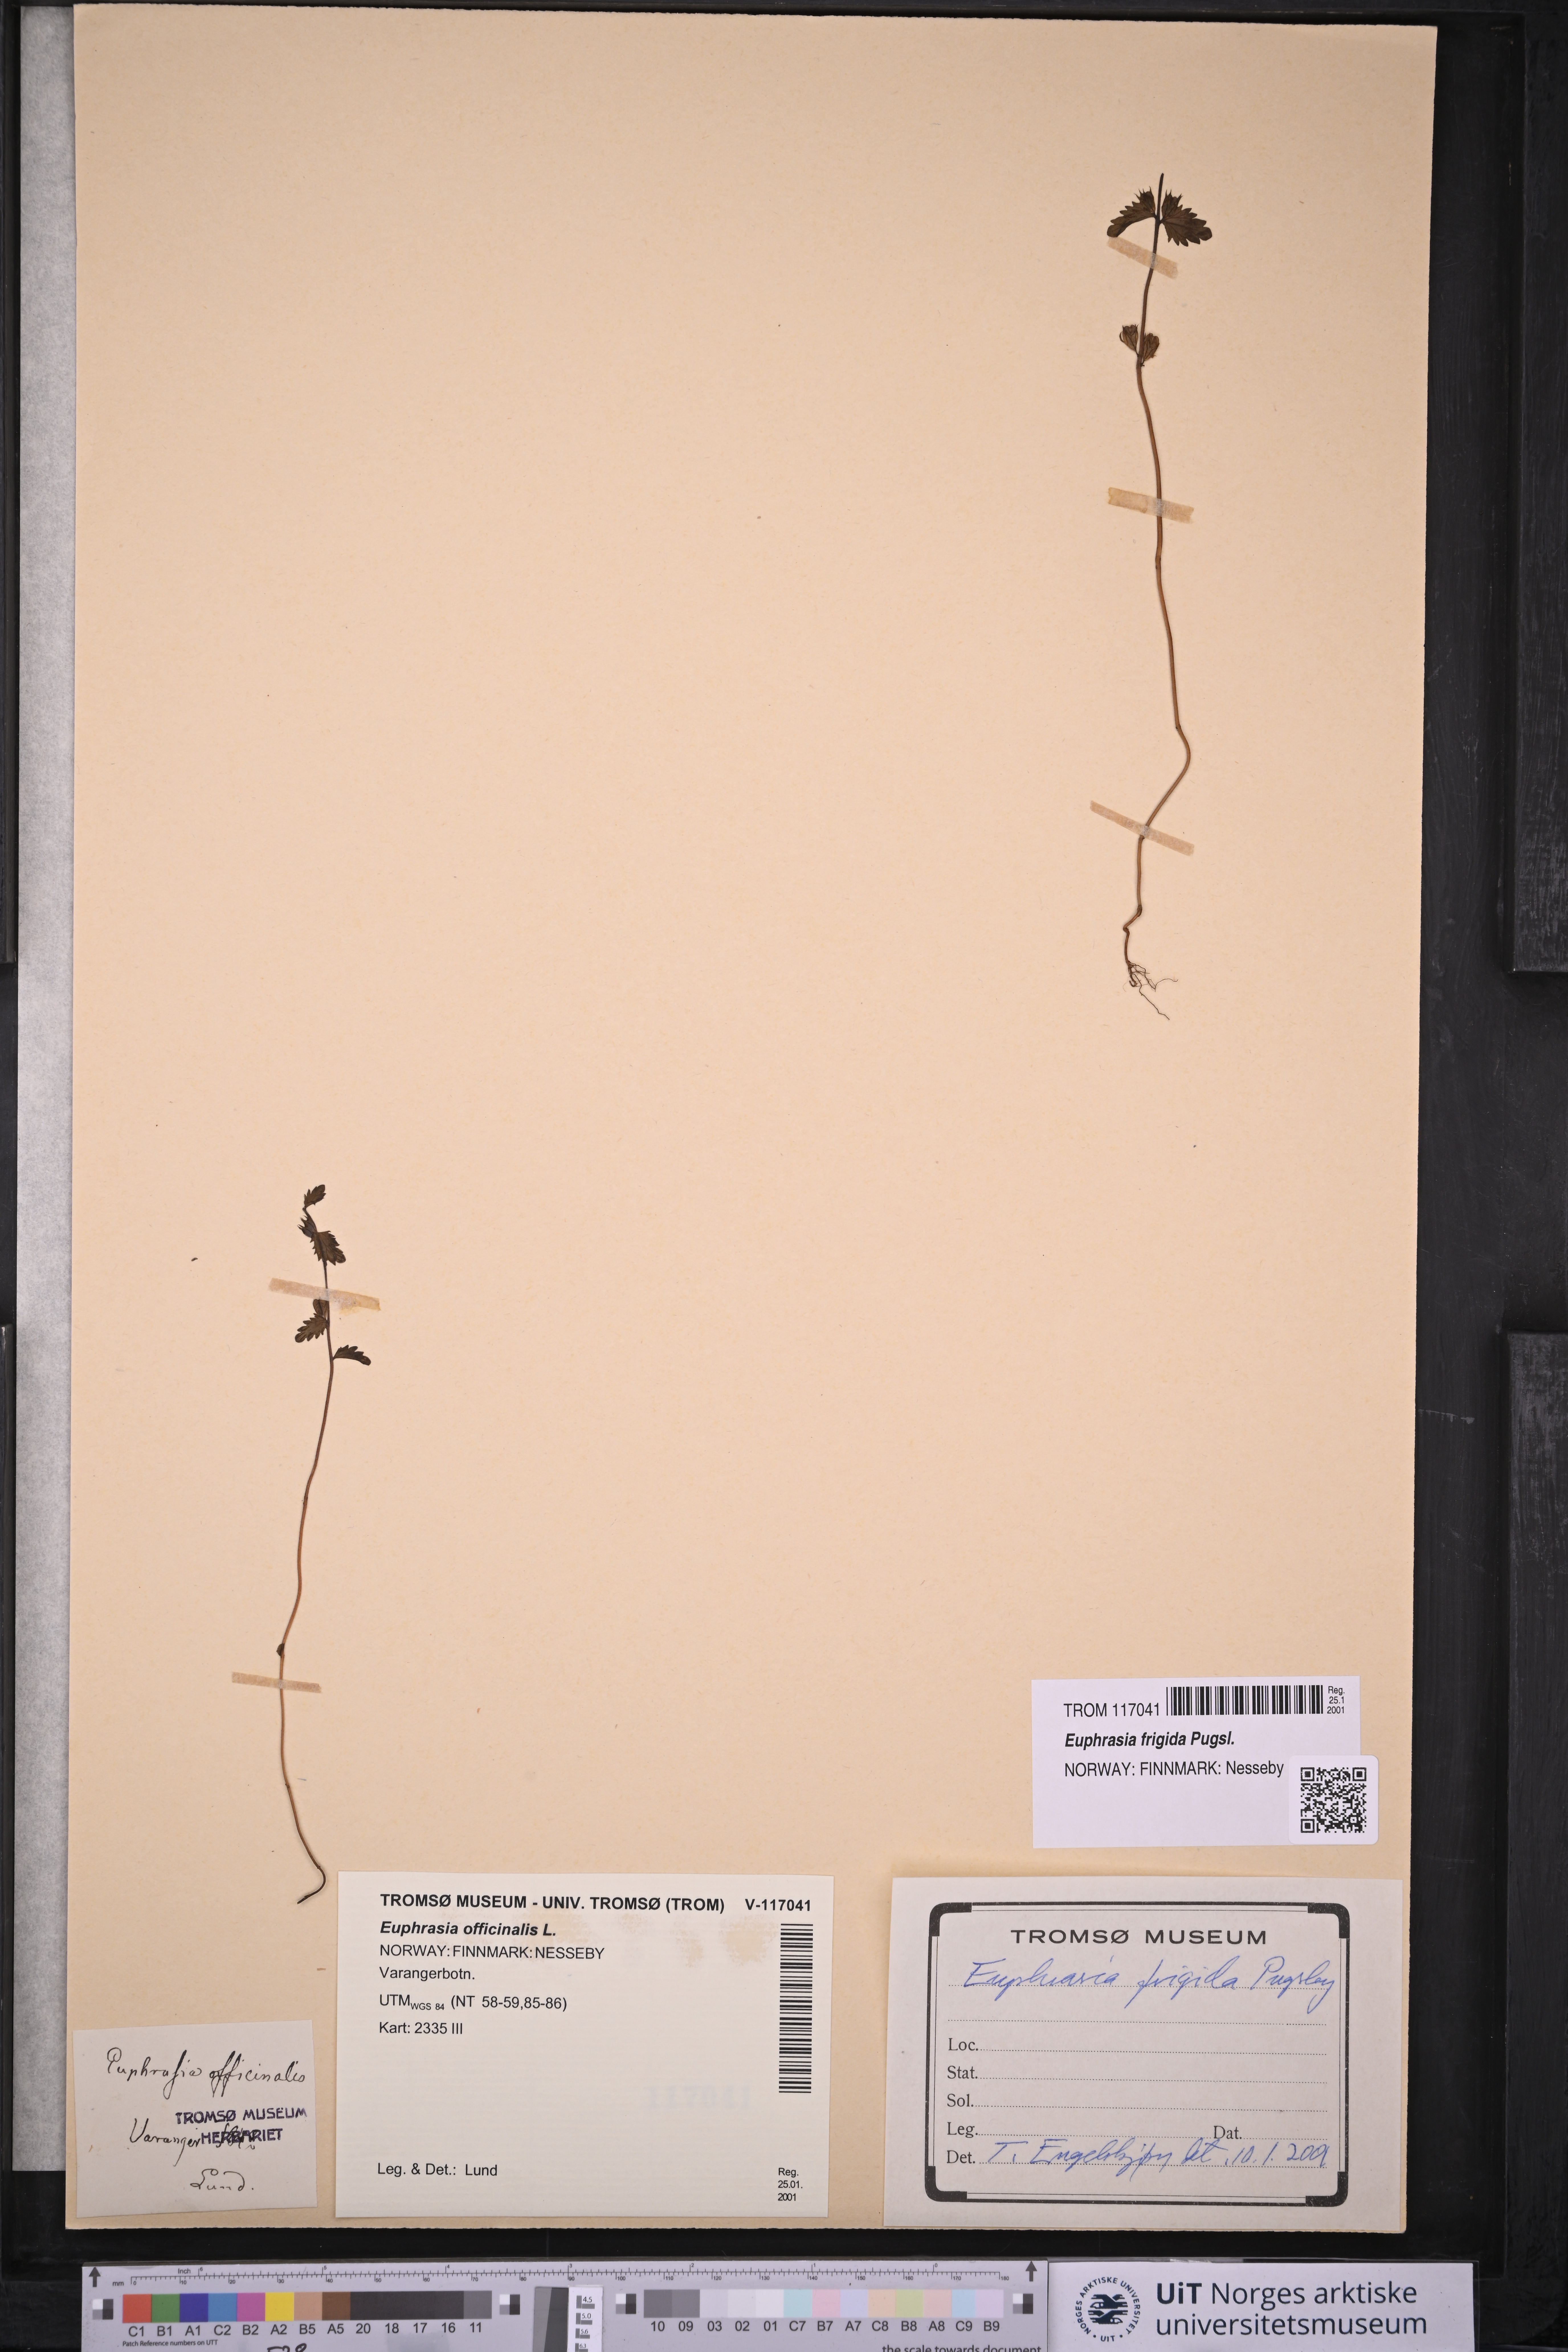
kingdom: Plantae
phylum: Tracheophyta
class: Magnoliopsida
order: Lamiales
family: Orobanchaceae
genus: Euphrasia
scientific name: Euphrasia frigida
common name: An eyebright
